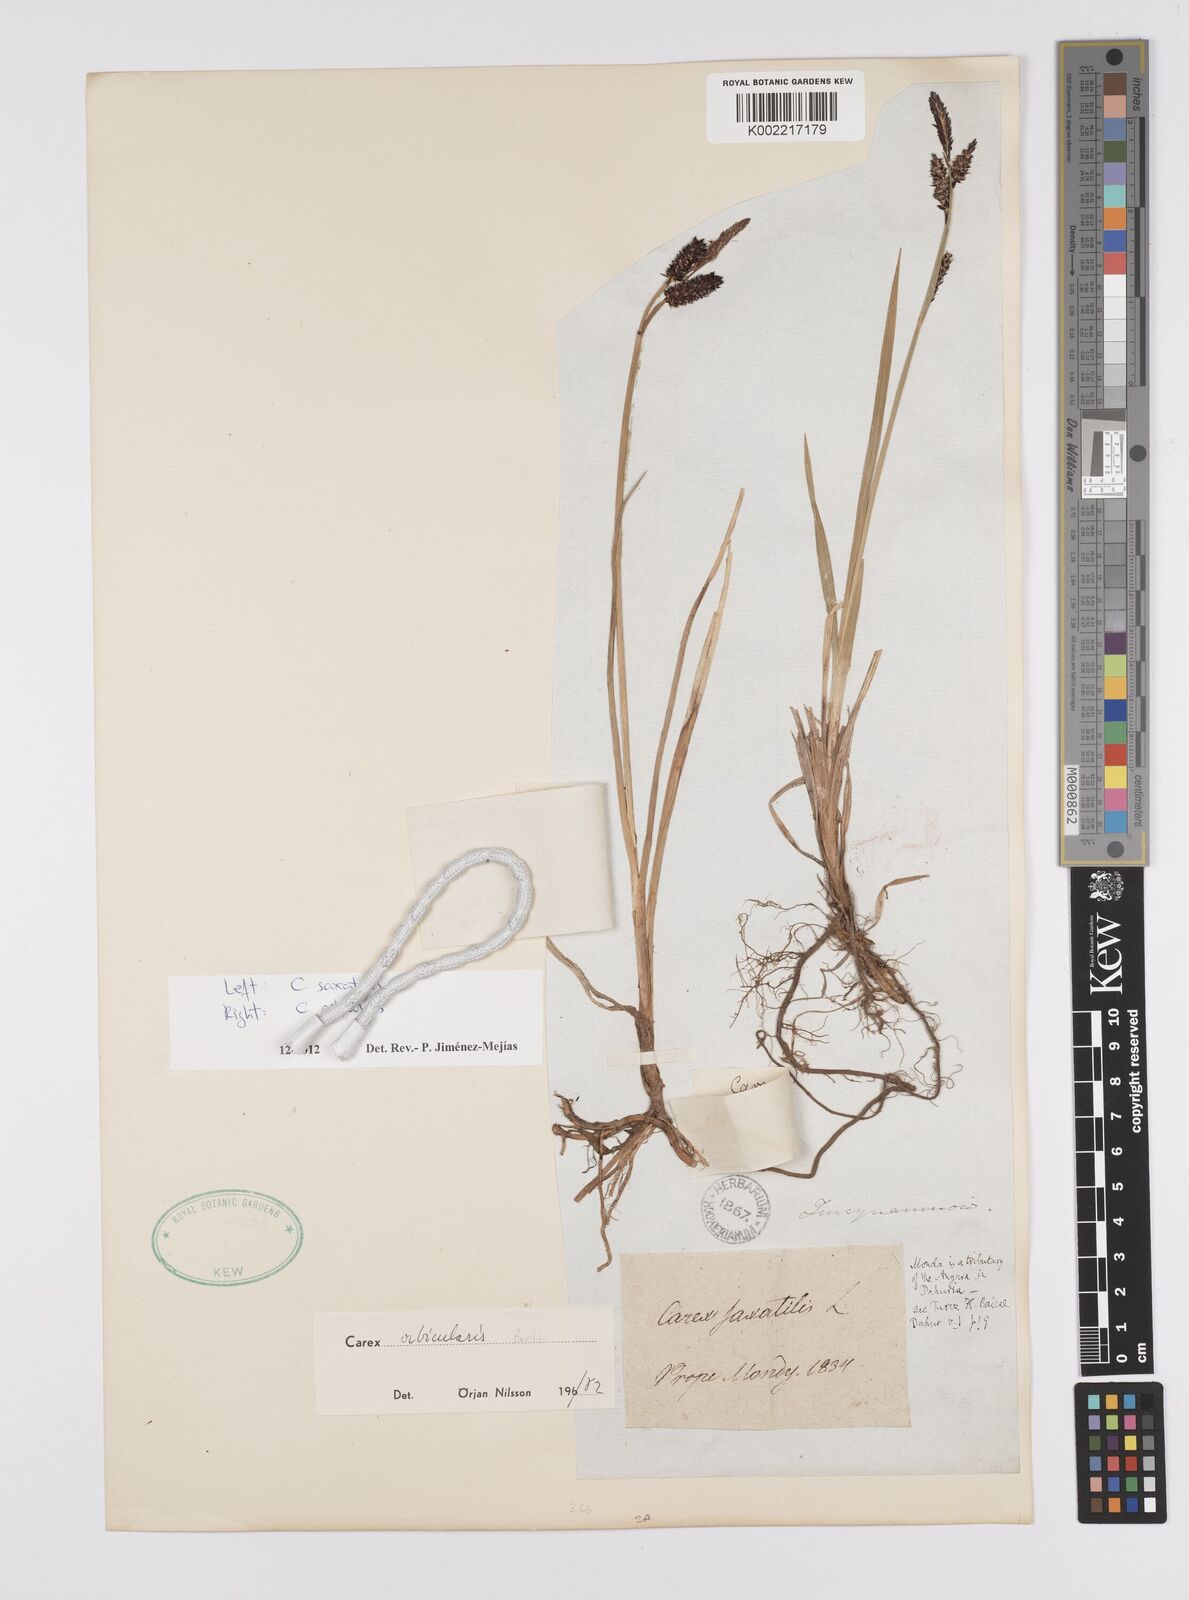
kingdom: Plantae
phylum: Tracheophyta
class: Liliopsida
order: Poales
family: Cyperaceae
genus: Carex
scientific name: Carex
